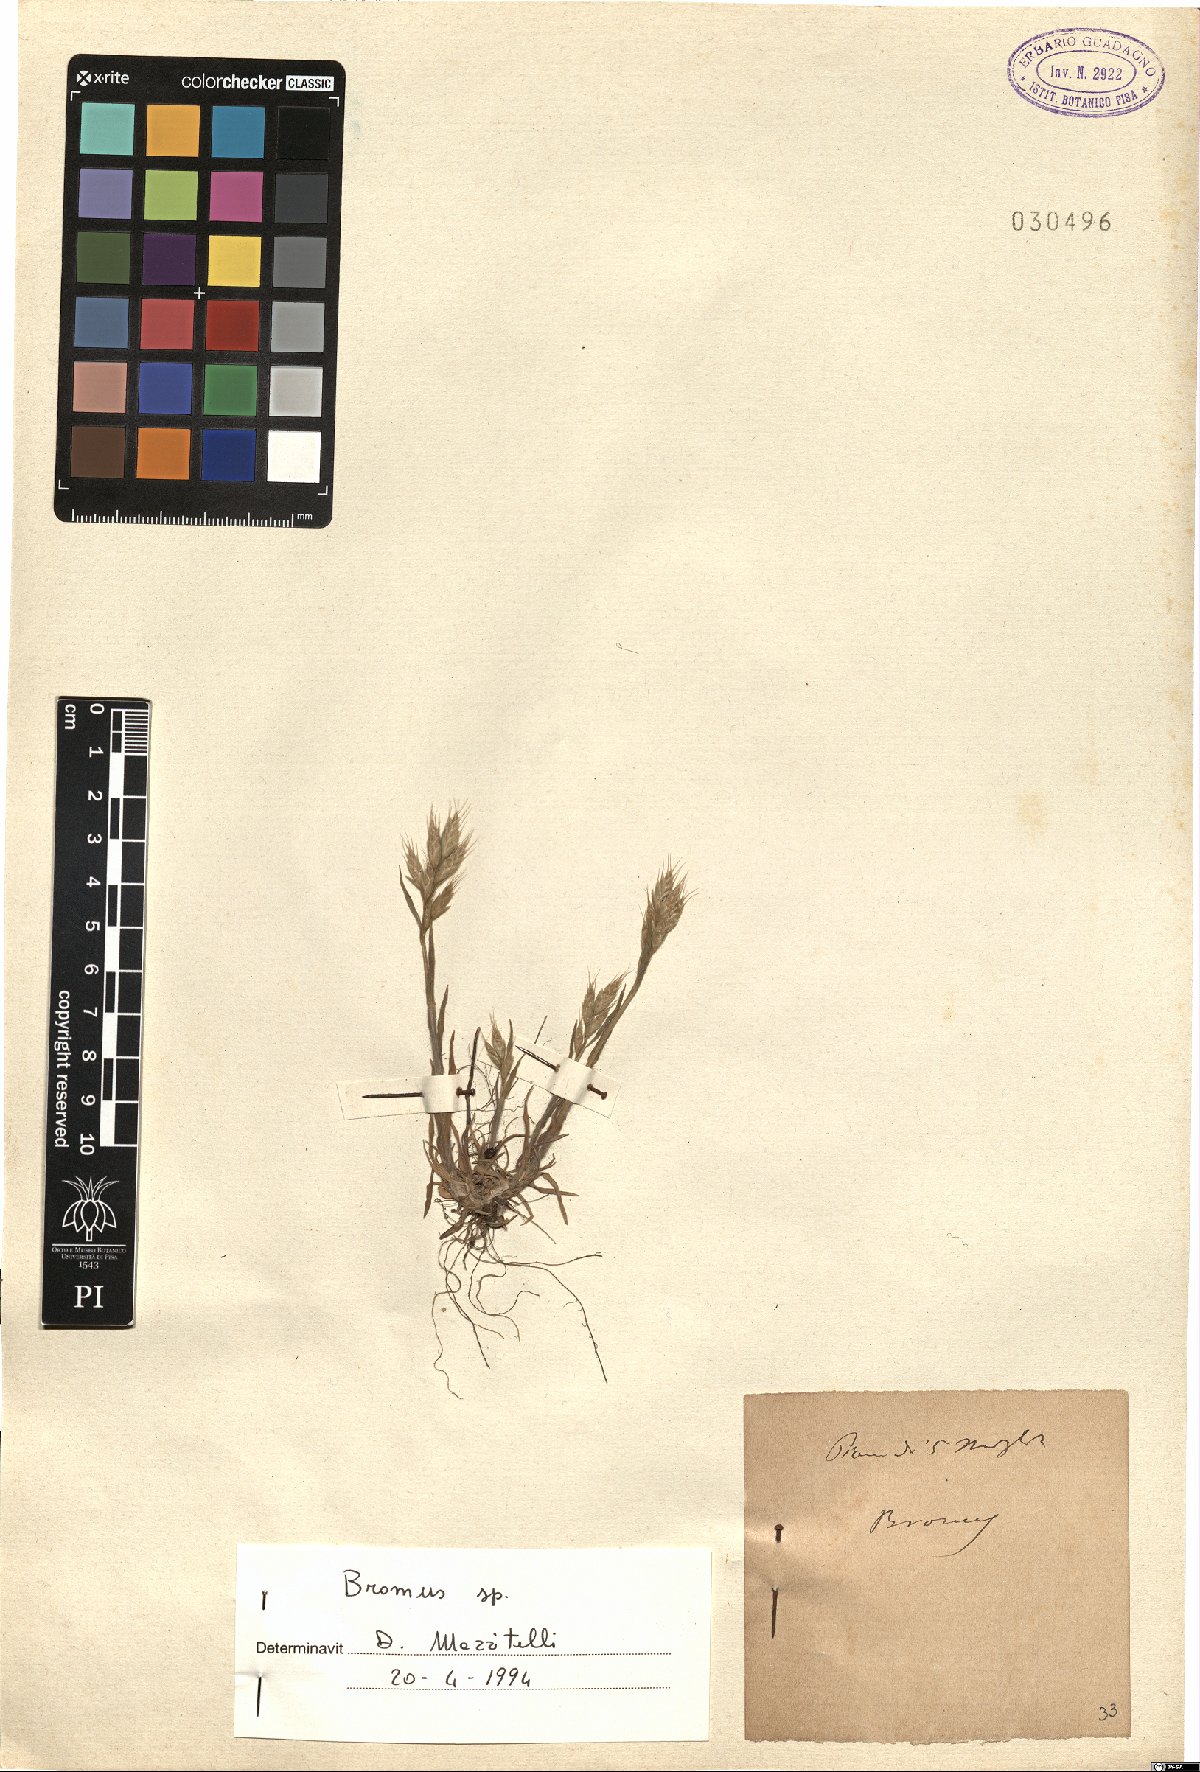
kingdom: Plantae
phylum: Tracheophyta
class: Liliopsida
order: Poales
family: Poaceae
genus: Bromus
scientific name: Bromus
